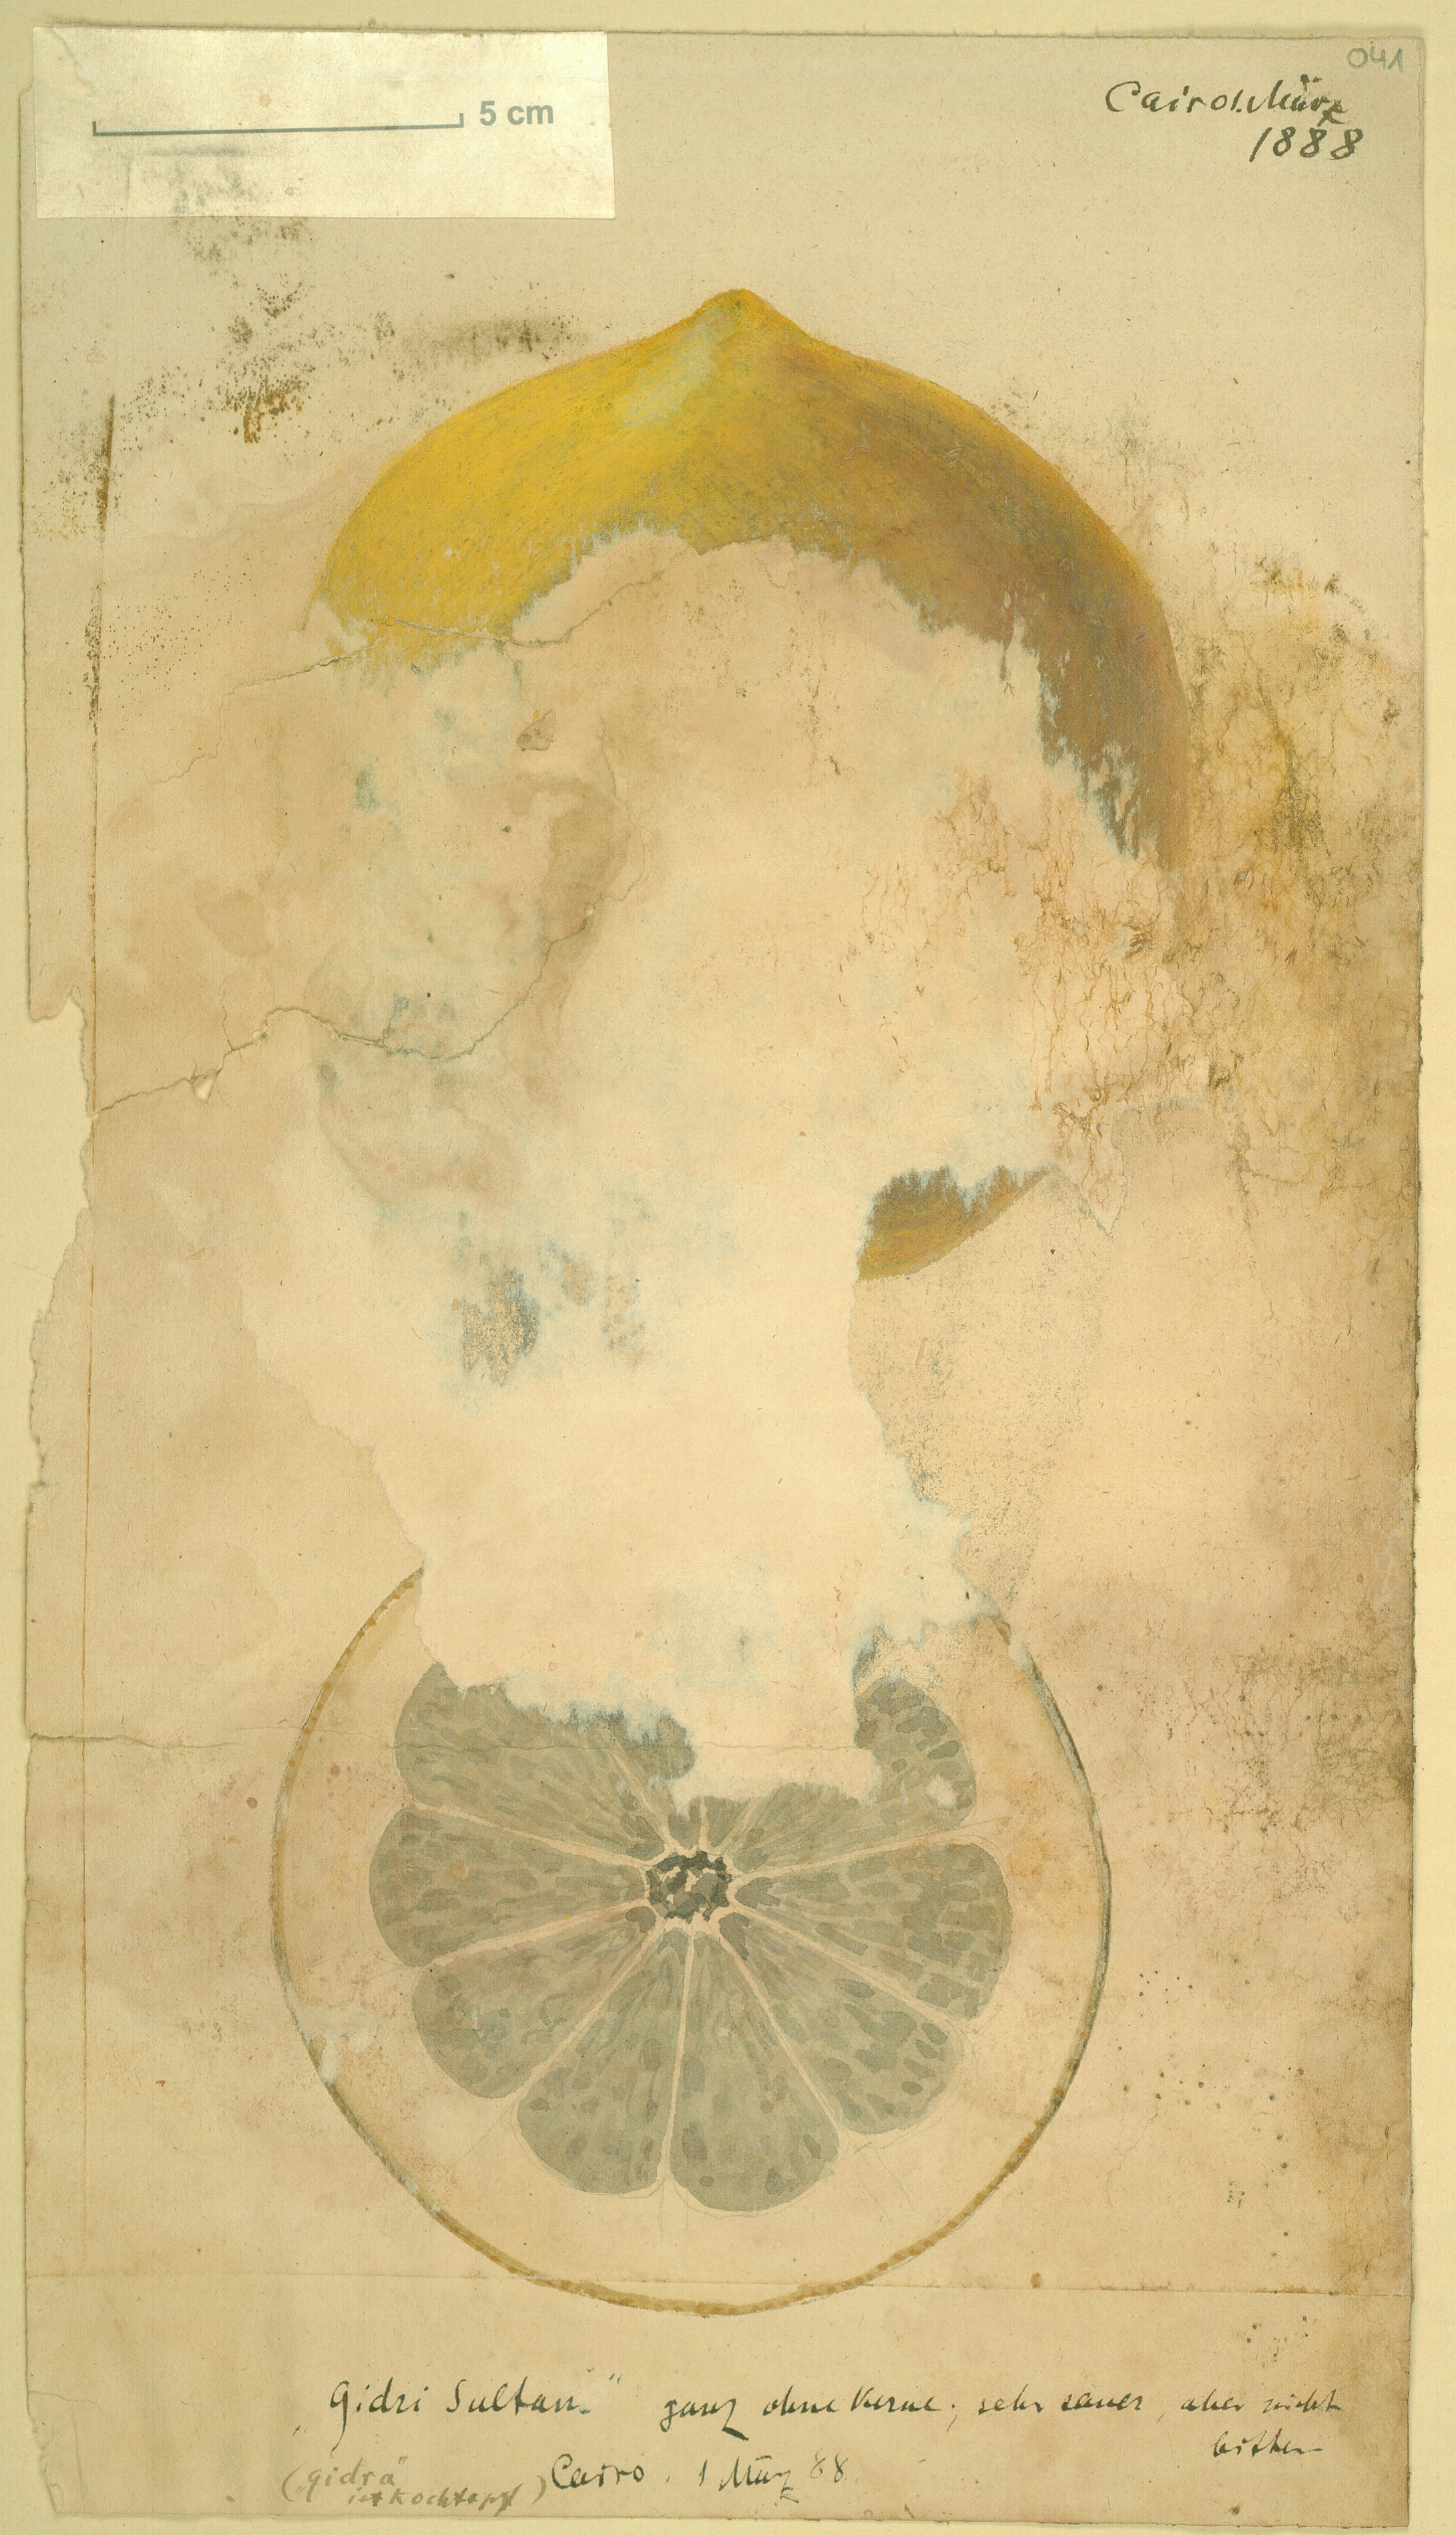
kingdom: Plantae
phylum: Tracheophyta
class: Magnoliopsida
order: Sapindales
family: Rutaceae
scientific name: Rutaceae
